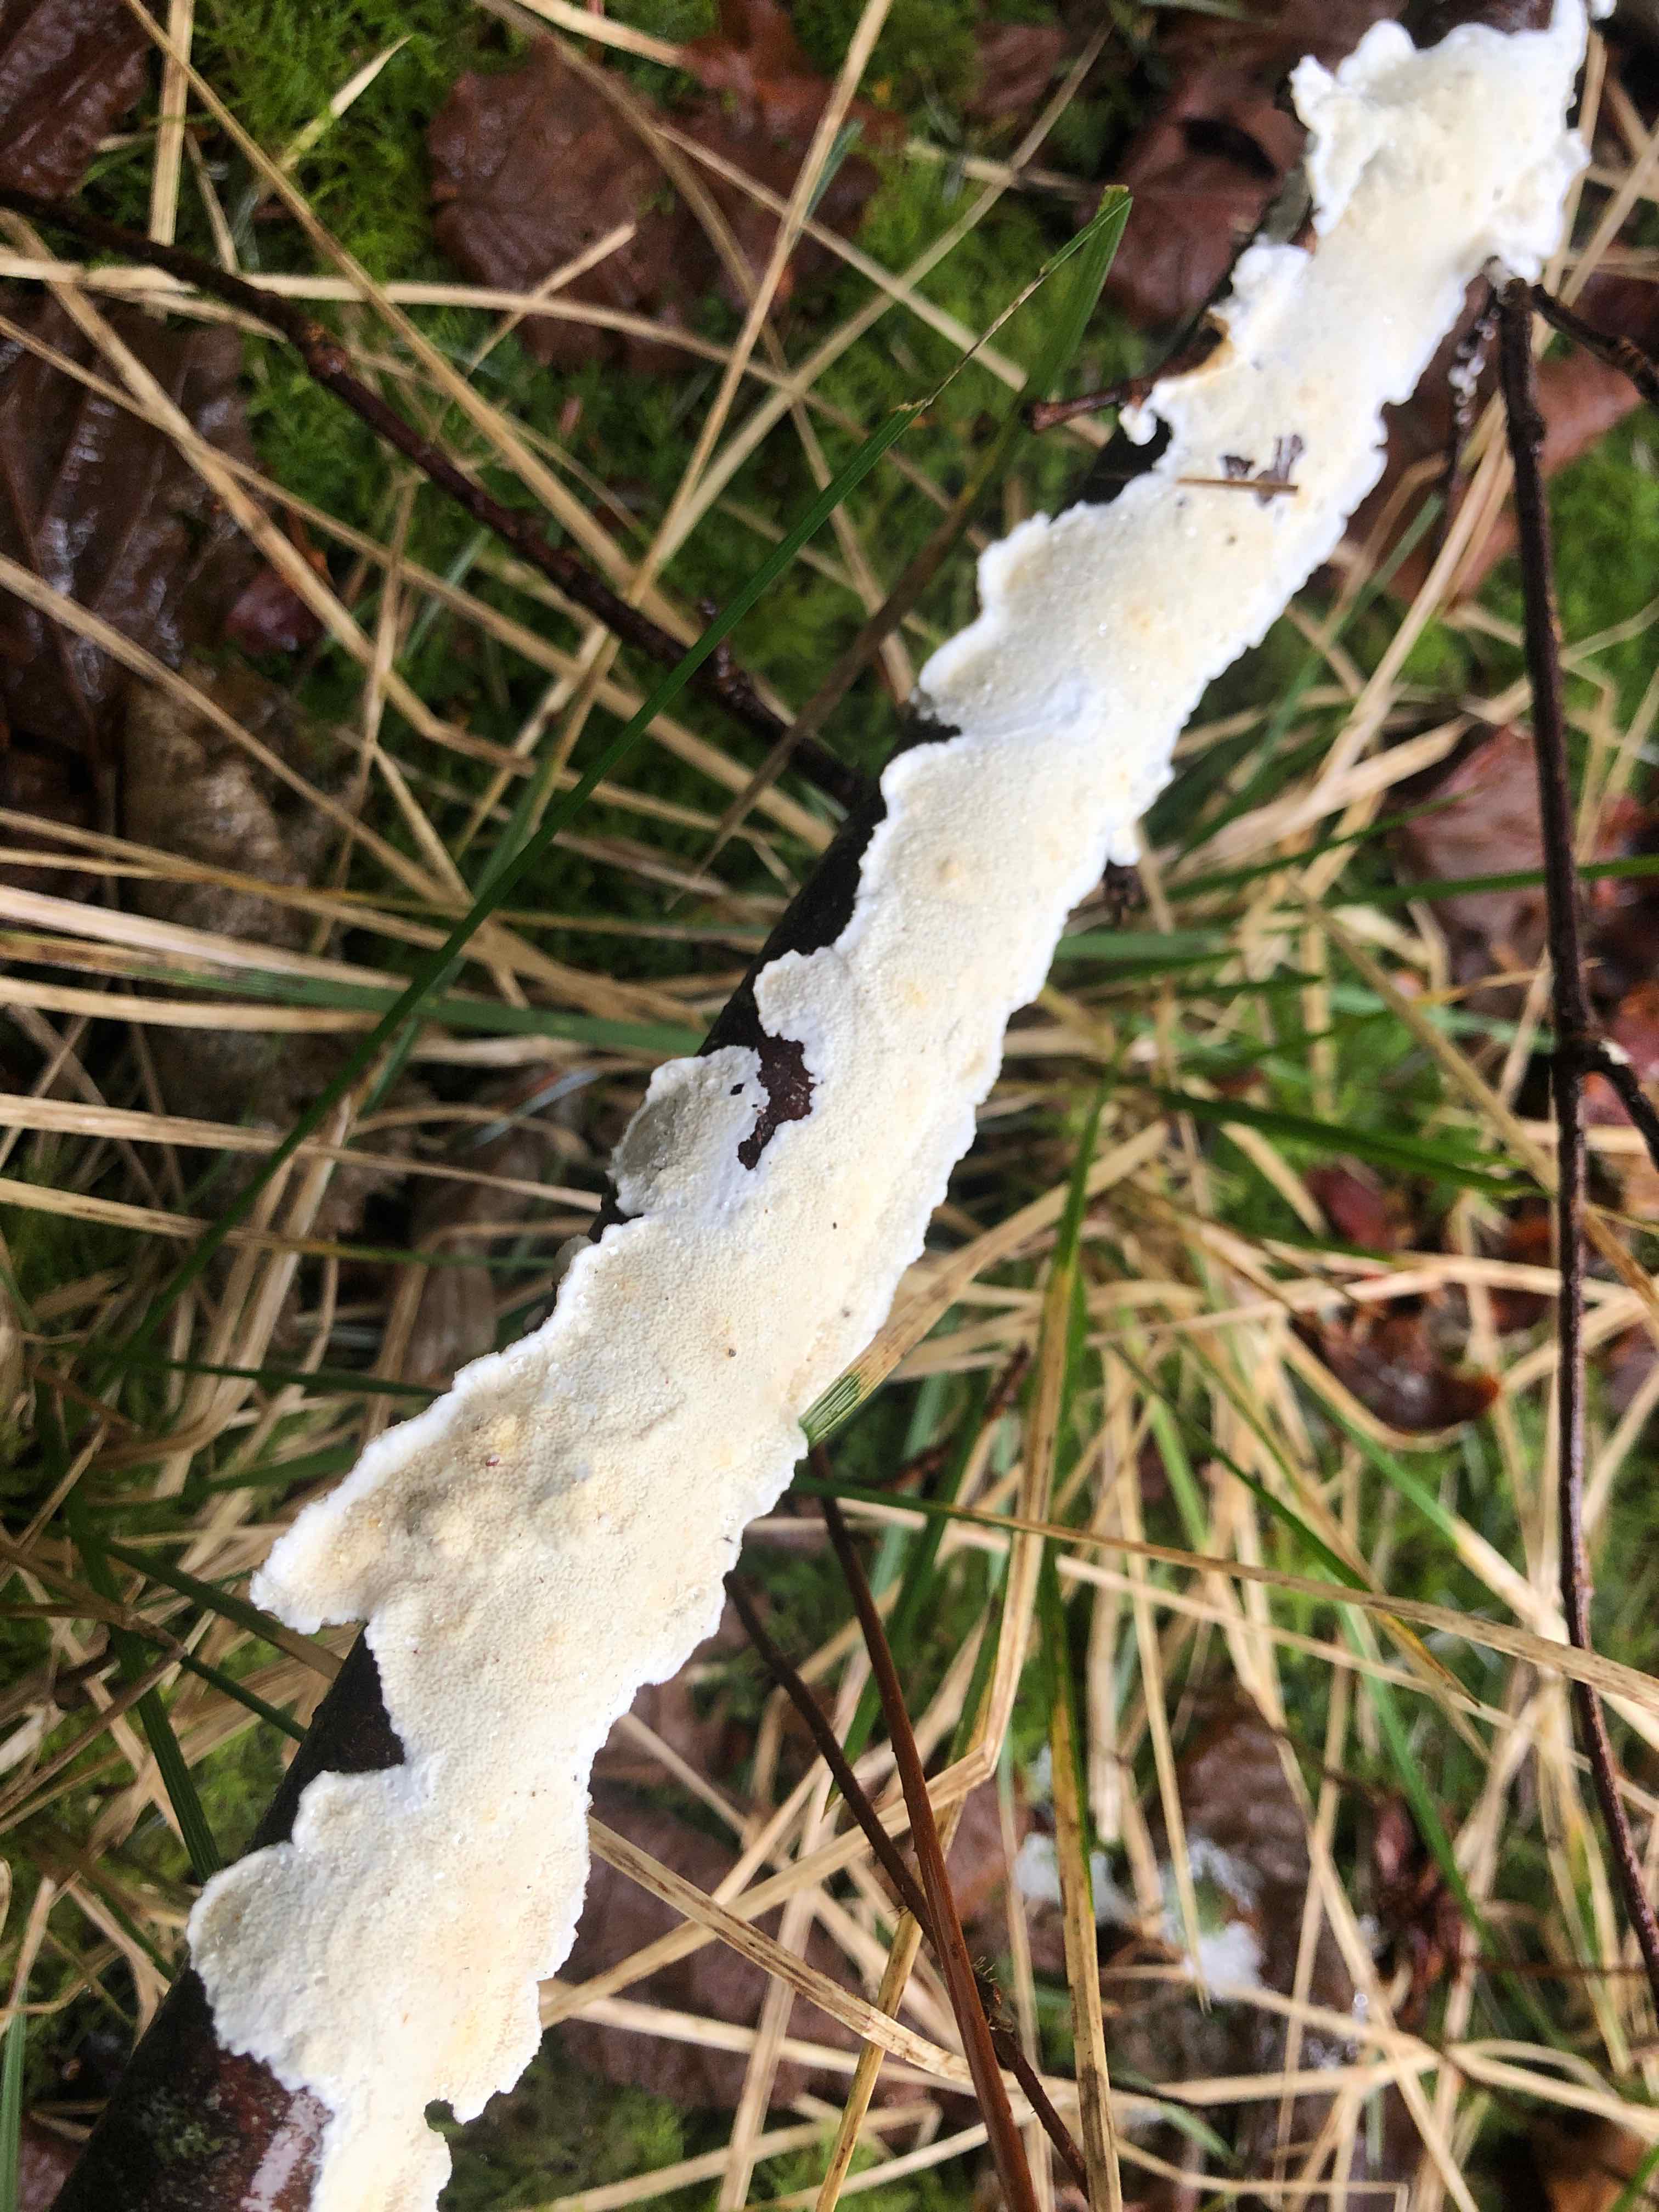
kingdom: Fungi
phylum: Basidiomycota
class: Agaricomycetes
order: Polyporales
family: Irpicaceae
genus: Byssomerulius
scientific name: Byssomerulius corium
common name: læder-åresvamp
